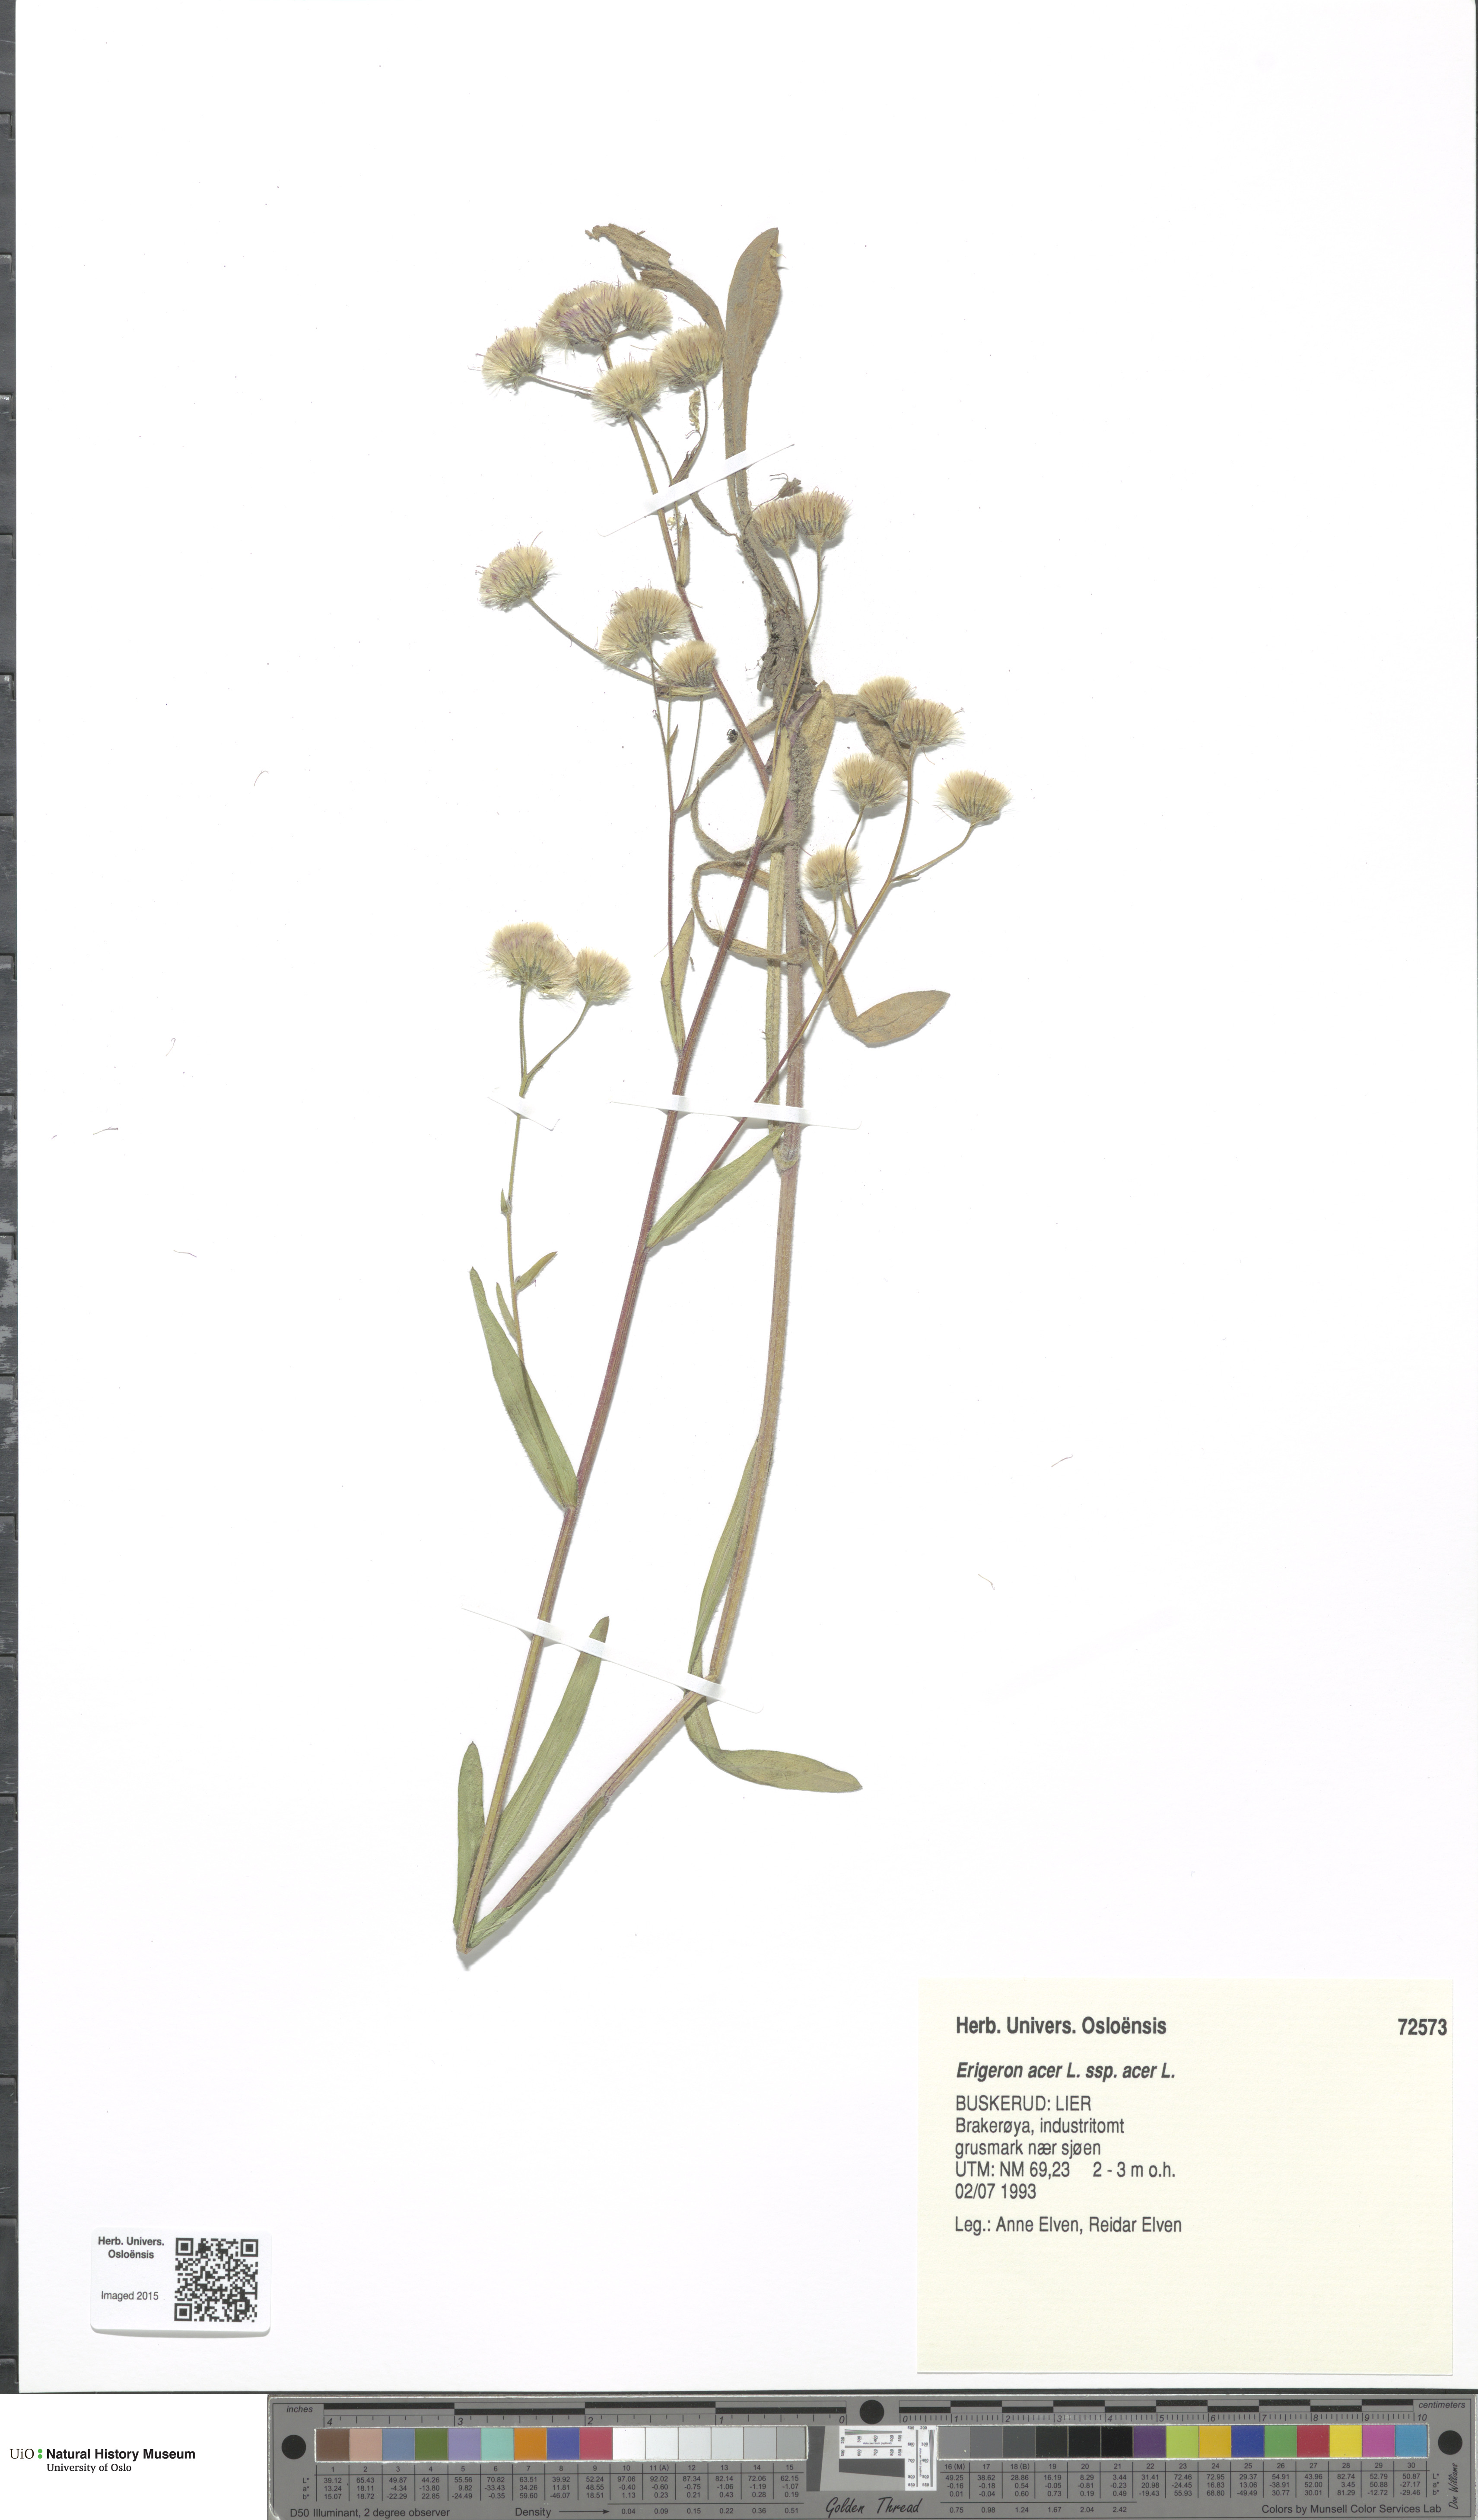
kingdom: Plantae
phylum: Tracheophyta
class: Magnoliopsida
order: Asterales
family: Asteraceae
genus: Erigeron
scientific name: Erigeron acris
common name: Blue fleabane
